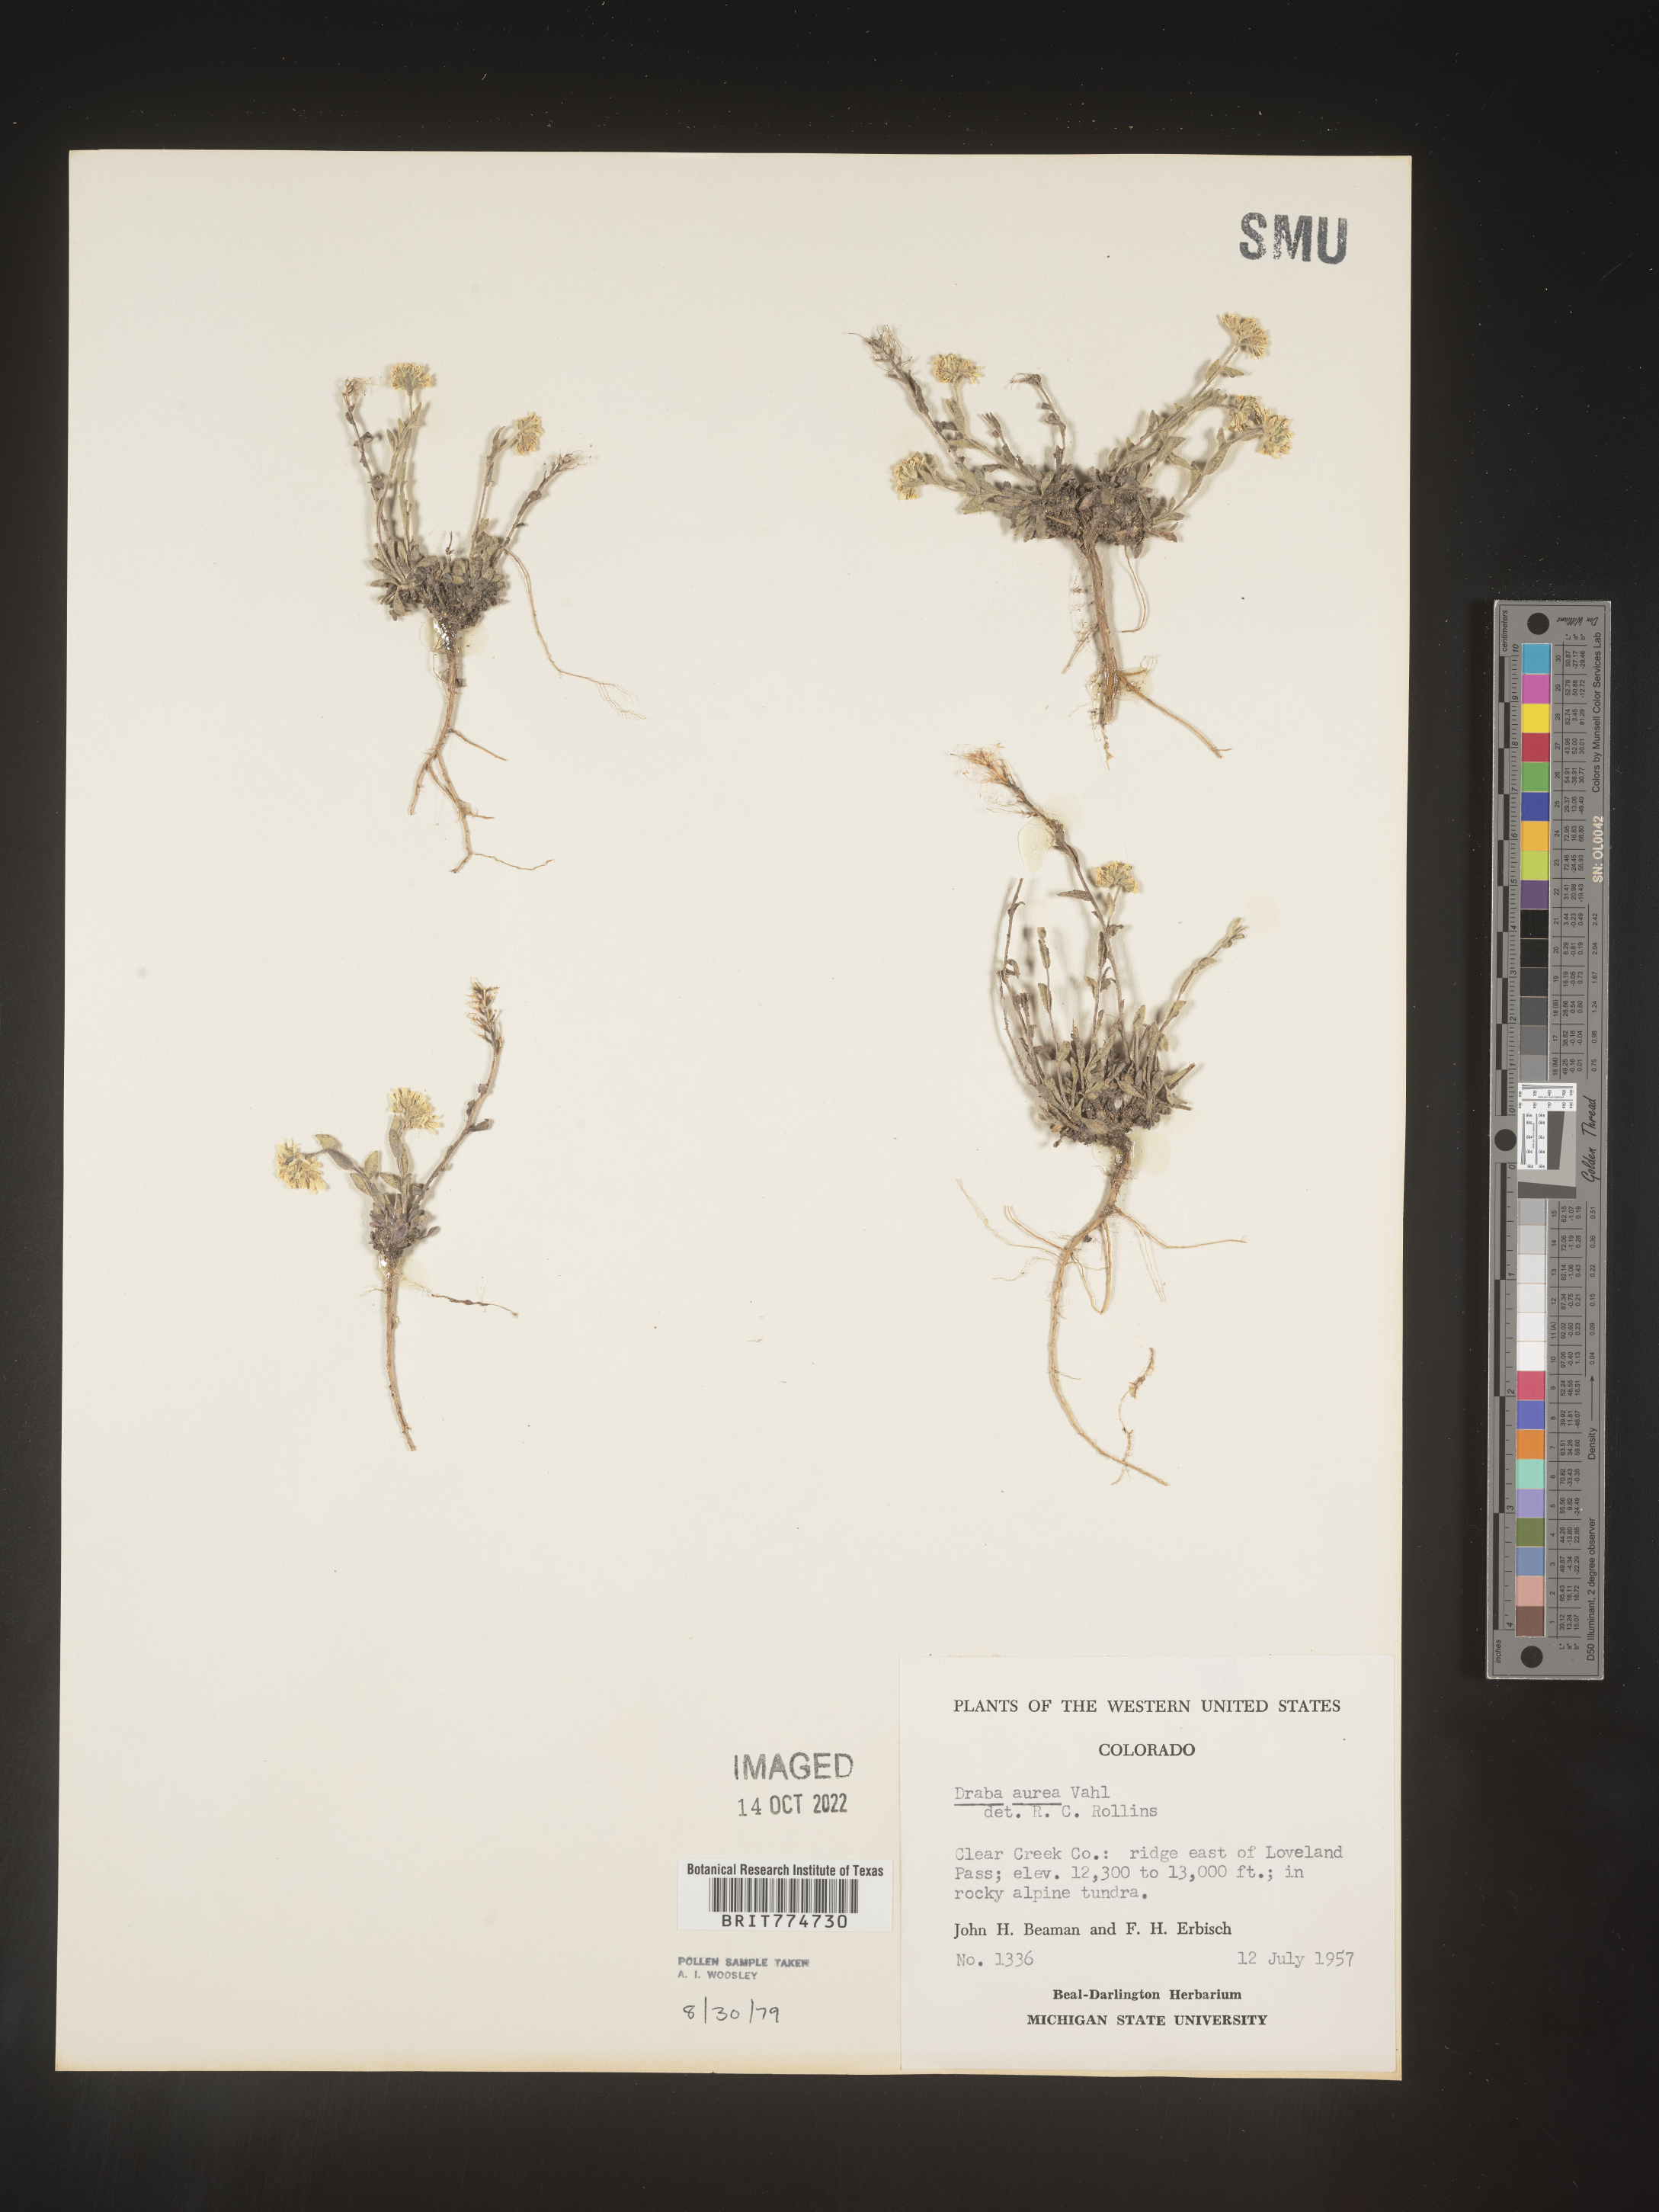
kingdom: Plantae
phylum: Tracheophyta
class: Magnoliopsida
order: Brassicales
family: Brassicaceae
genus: Draba
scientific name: Draba
